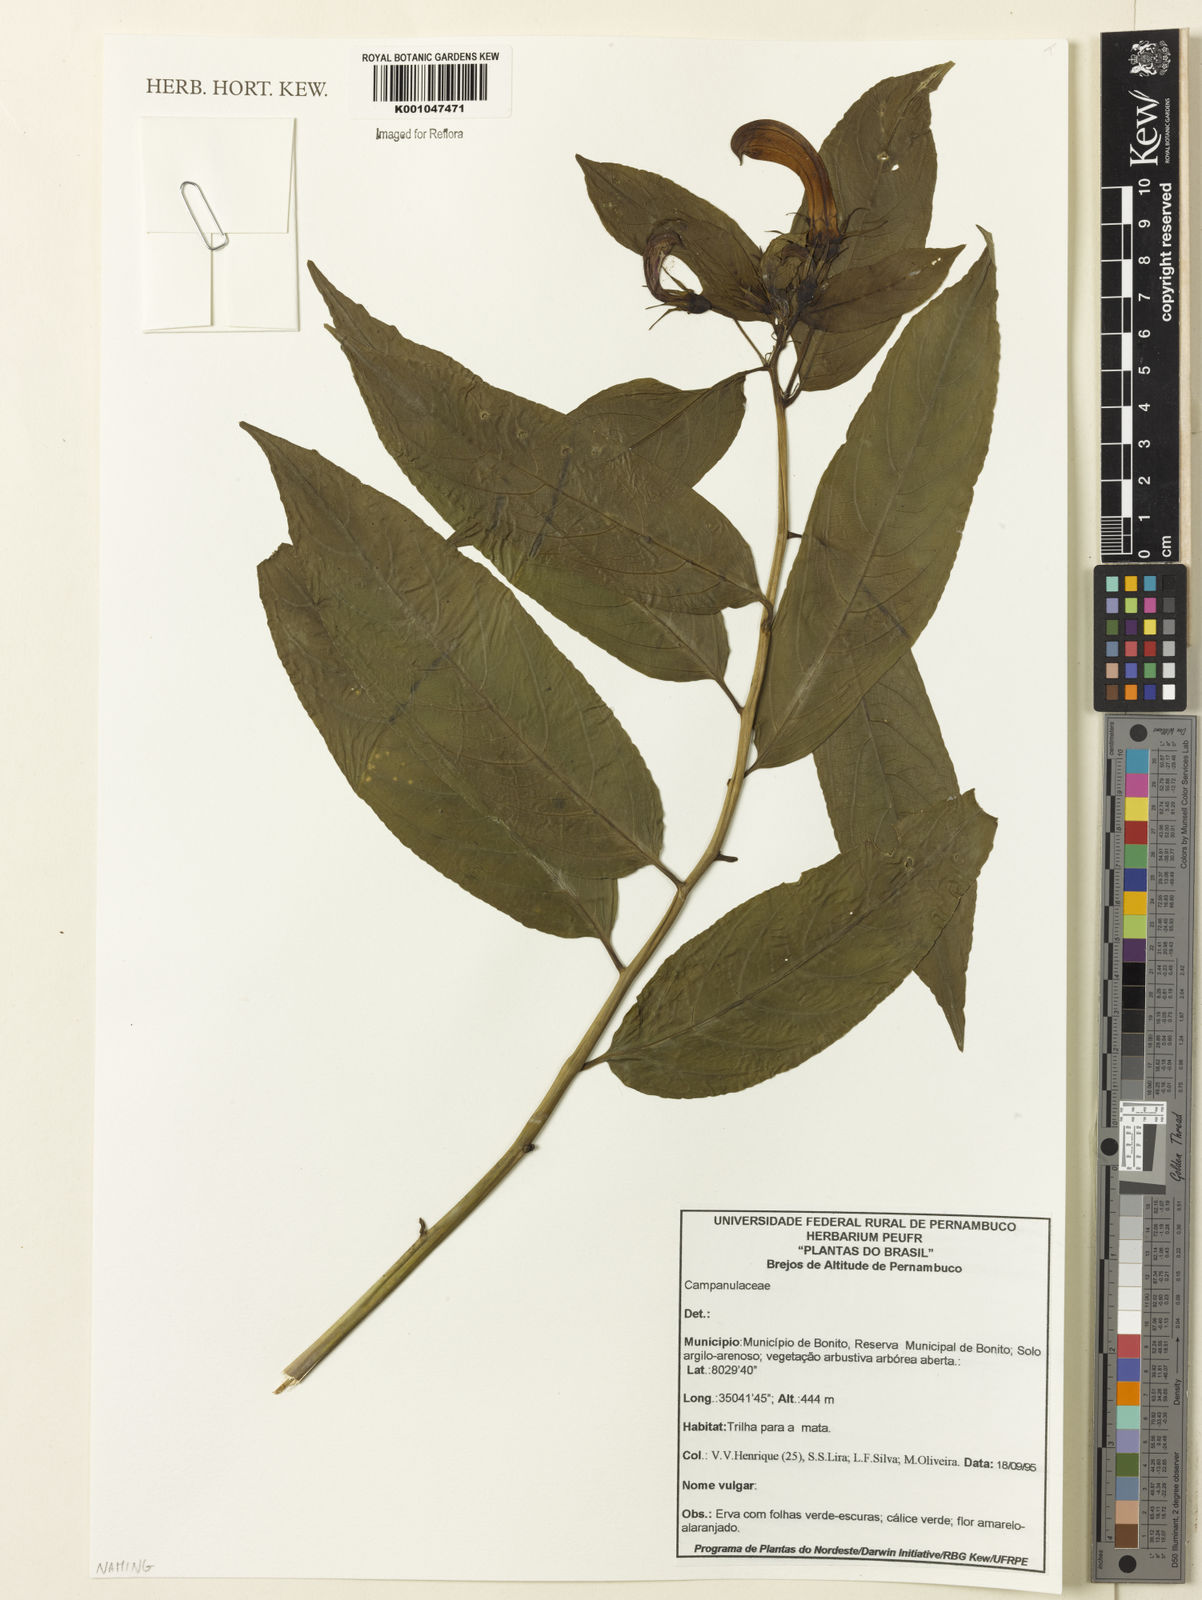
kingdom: Plantae
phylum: Tracheophyta
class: Magnoliopsida
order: Asterales
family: Campanulaceae
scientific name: Campanulaceae
